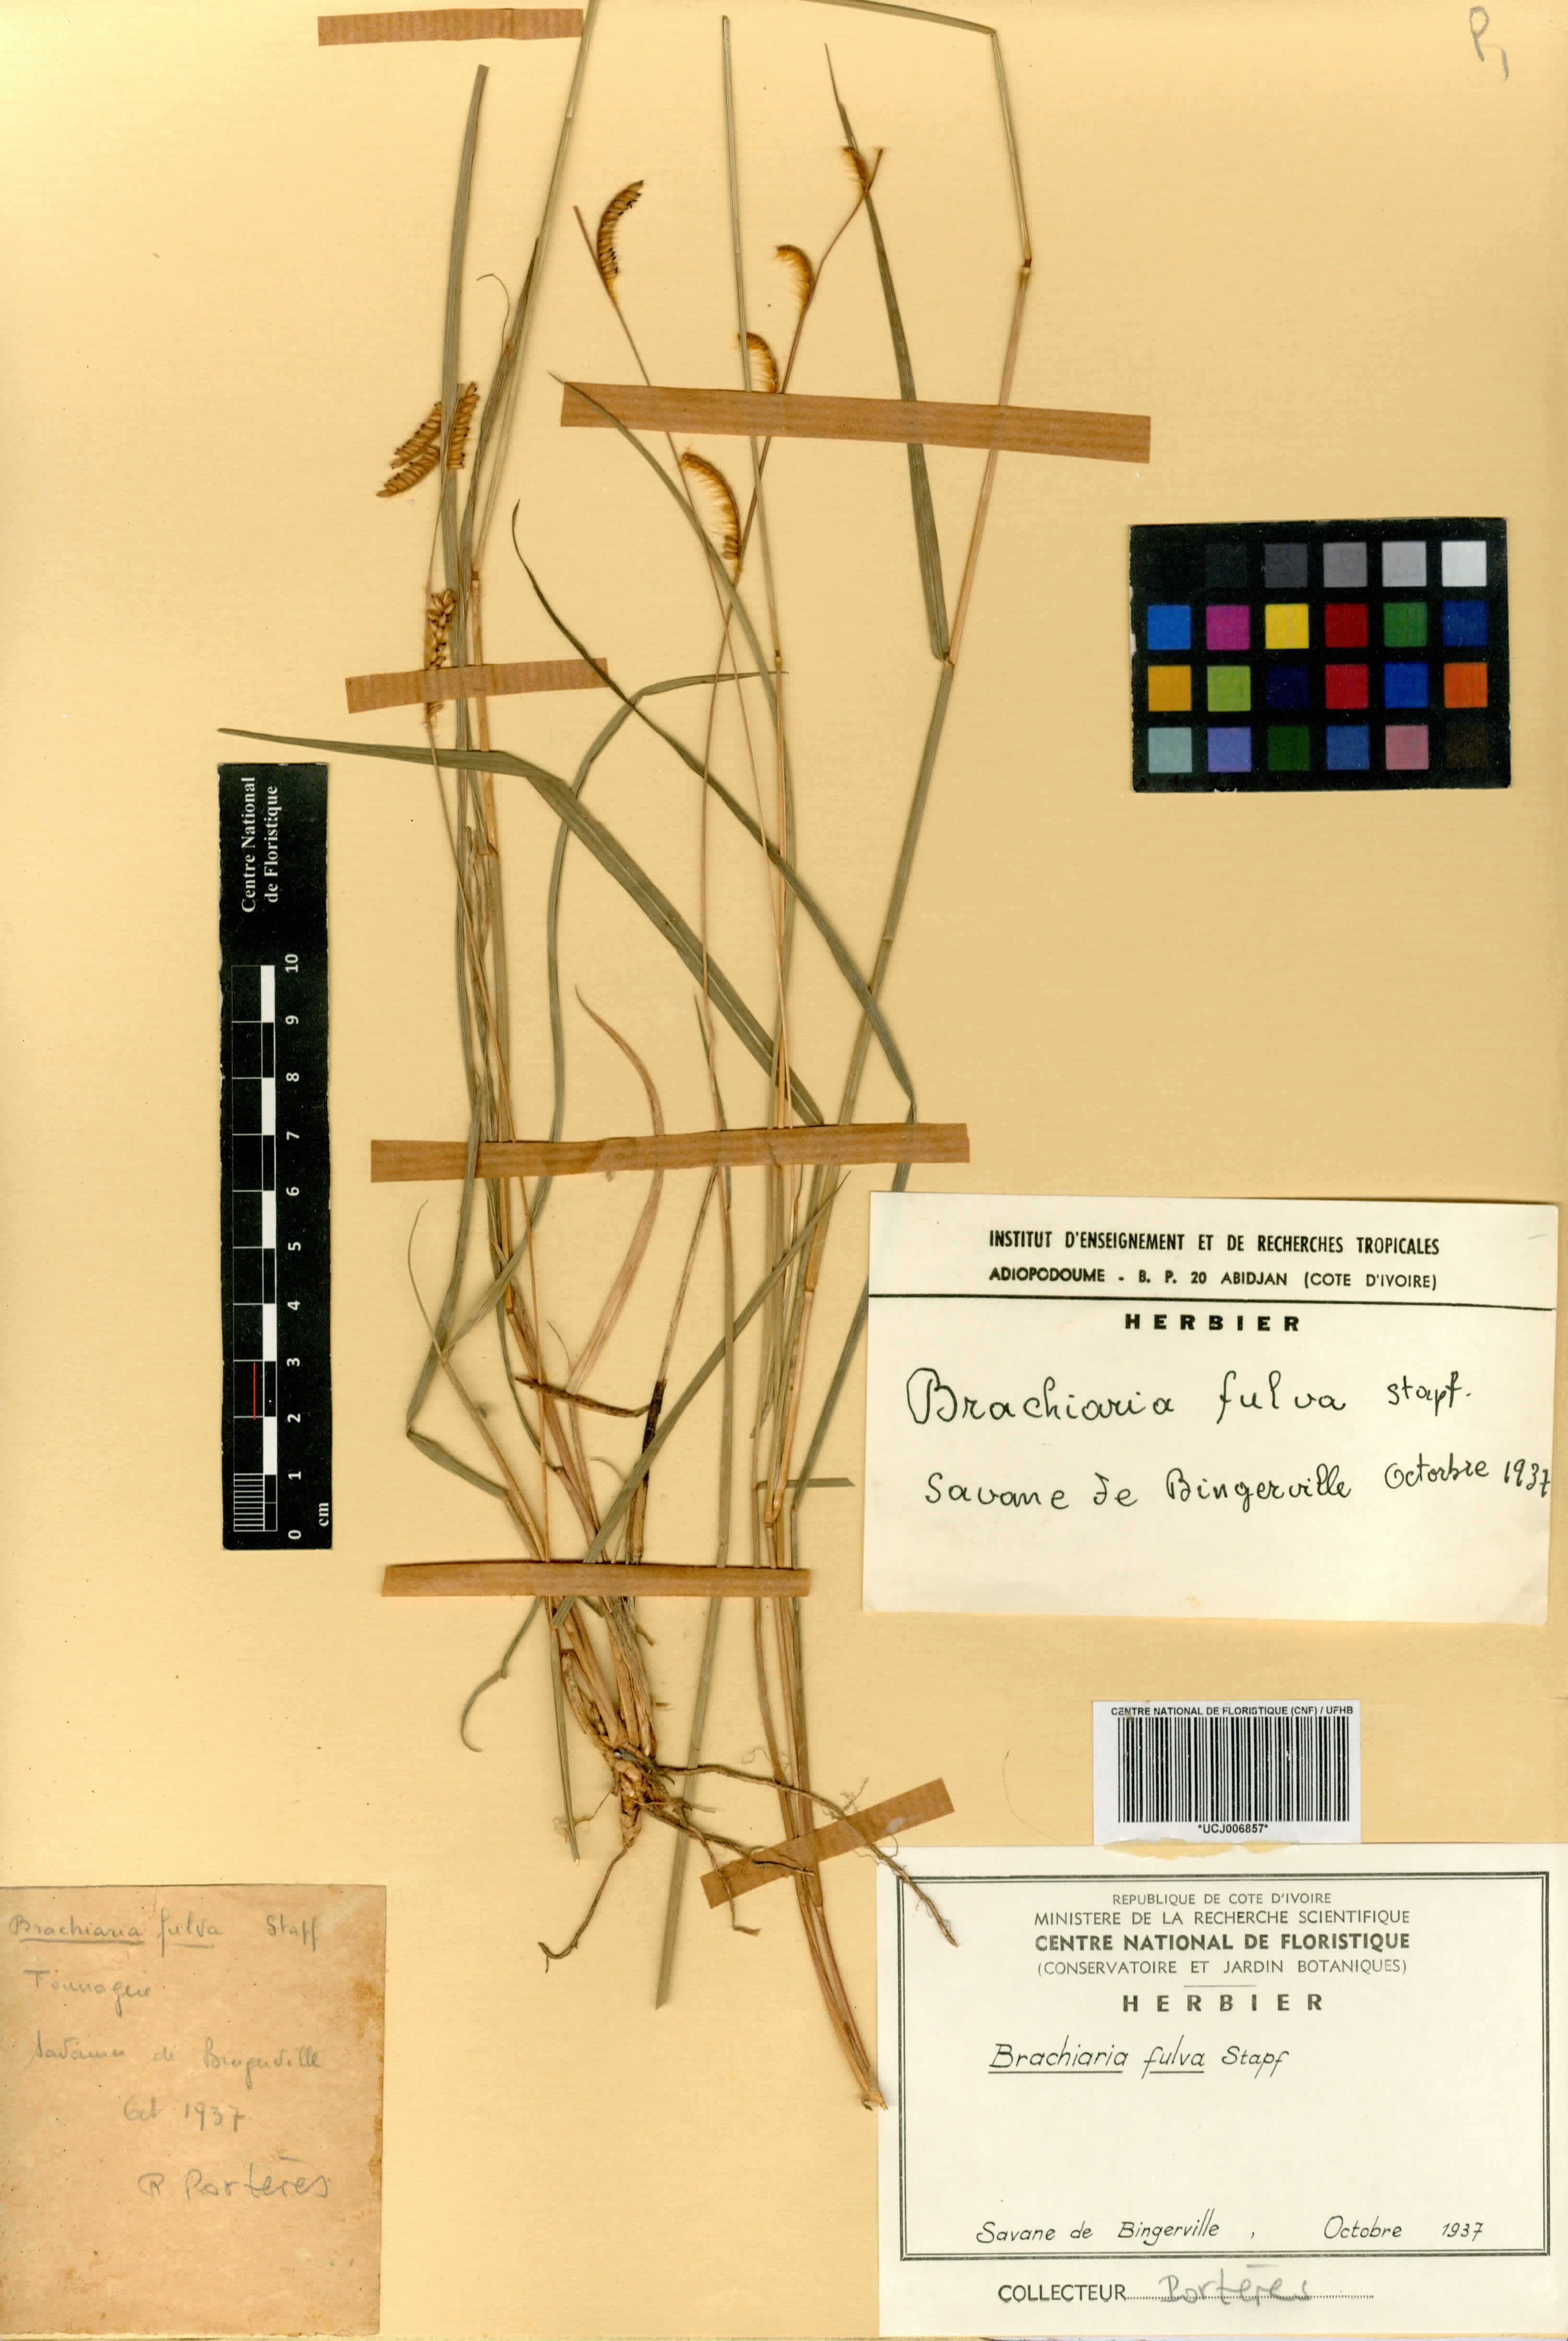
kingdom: Plantae
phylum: Tracheophyta
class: Liliopsida
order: Poales
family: Poaceae
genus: Urochloa
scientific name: Urochloa jubata
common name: Buffalograss
